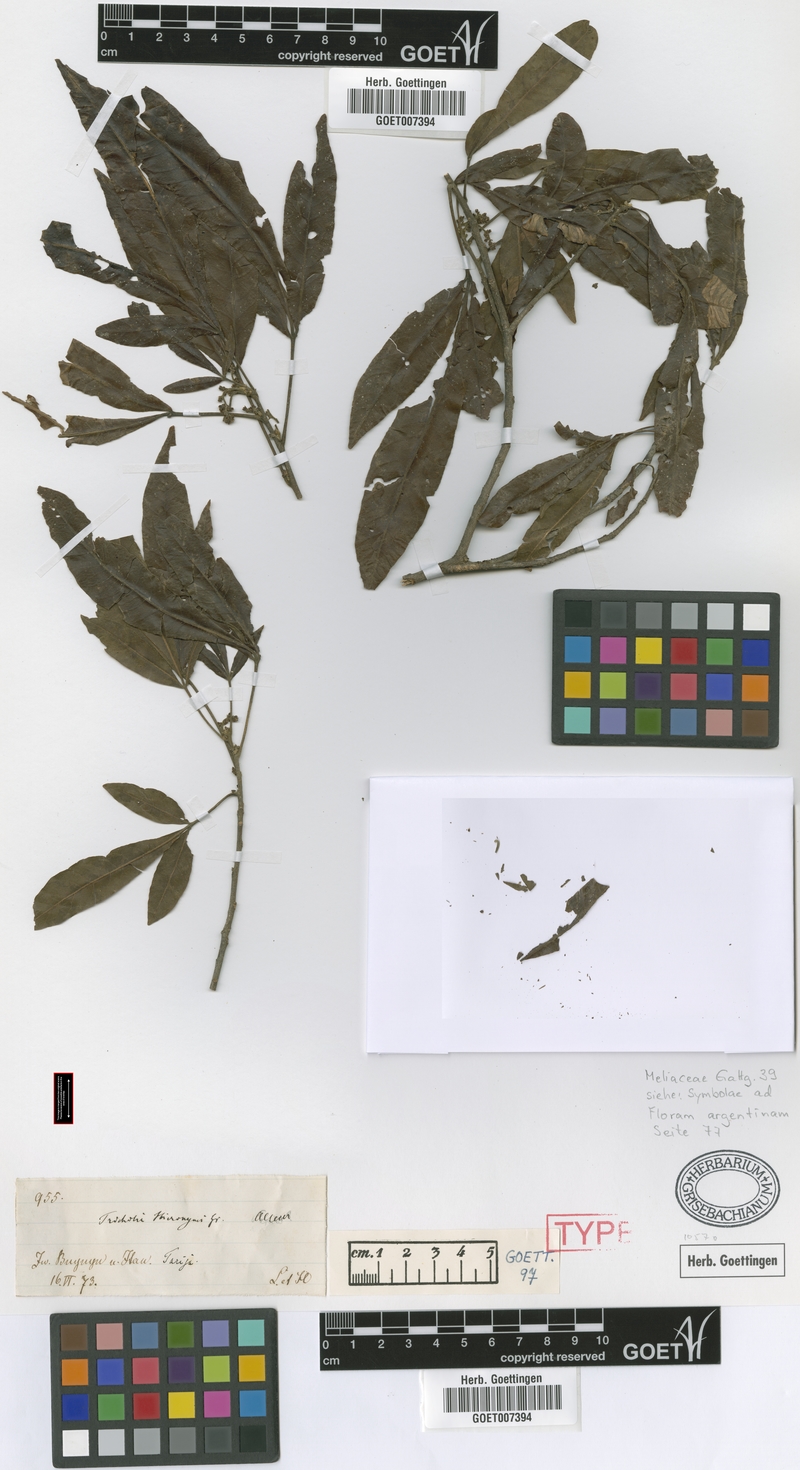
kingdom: Plantae
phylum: Tracheophyta
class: Magnoliopsida
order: Sapindales
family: Meliaceae
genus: Trichilia
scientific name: Trichilia claussenii
